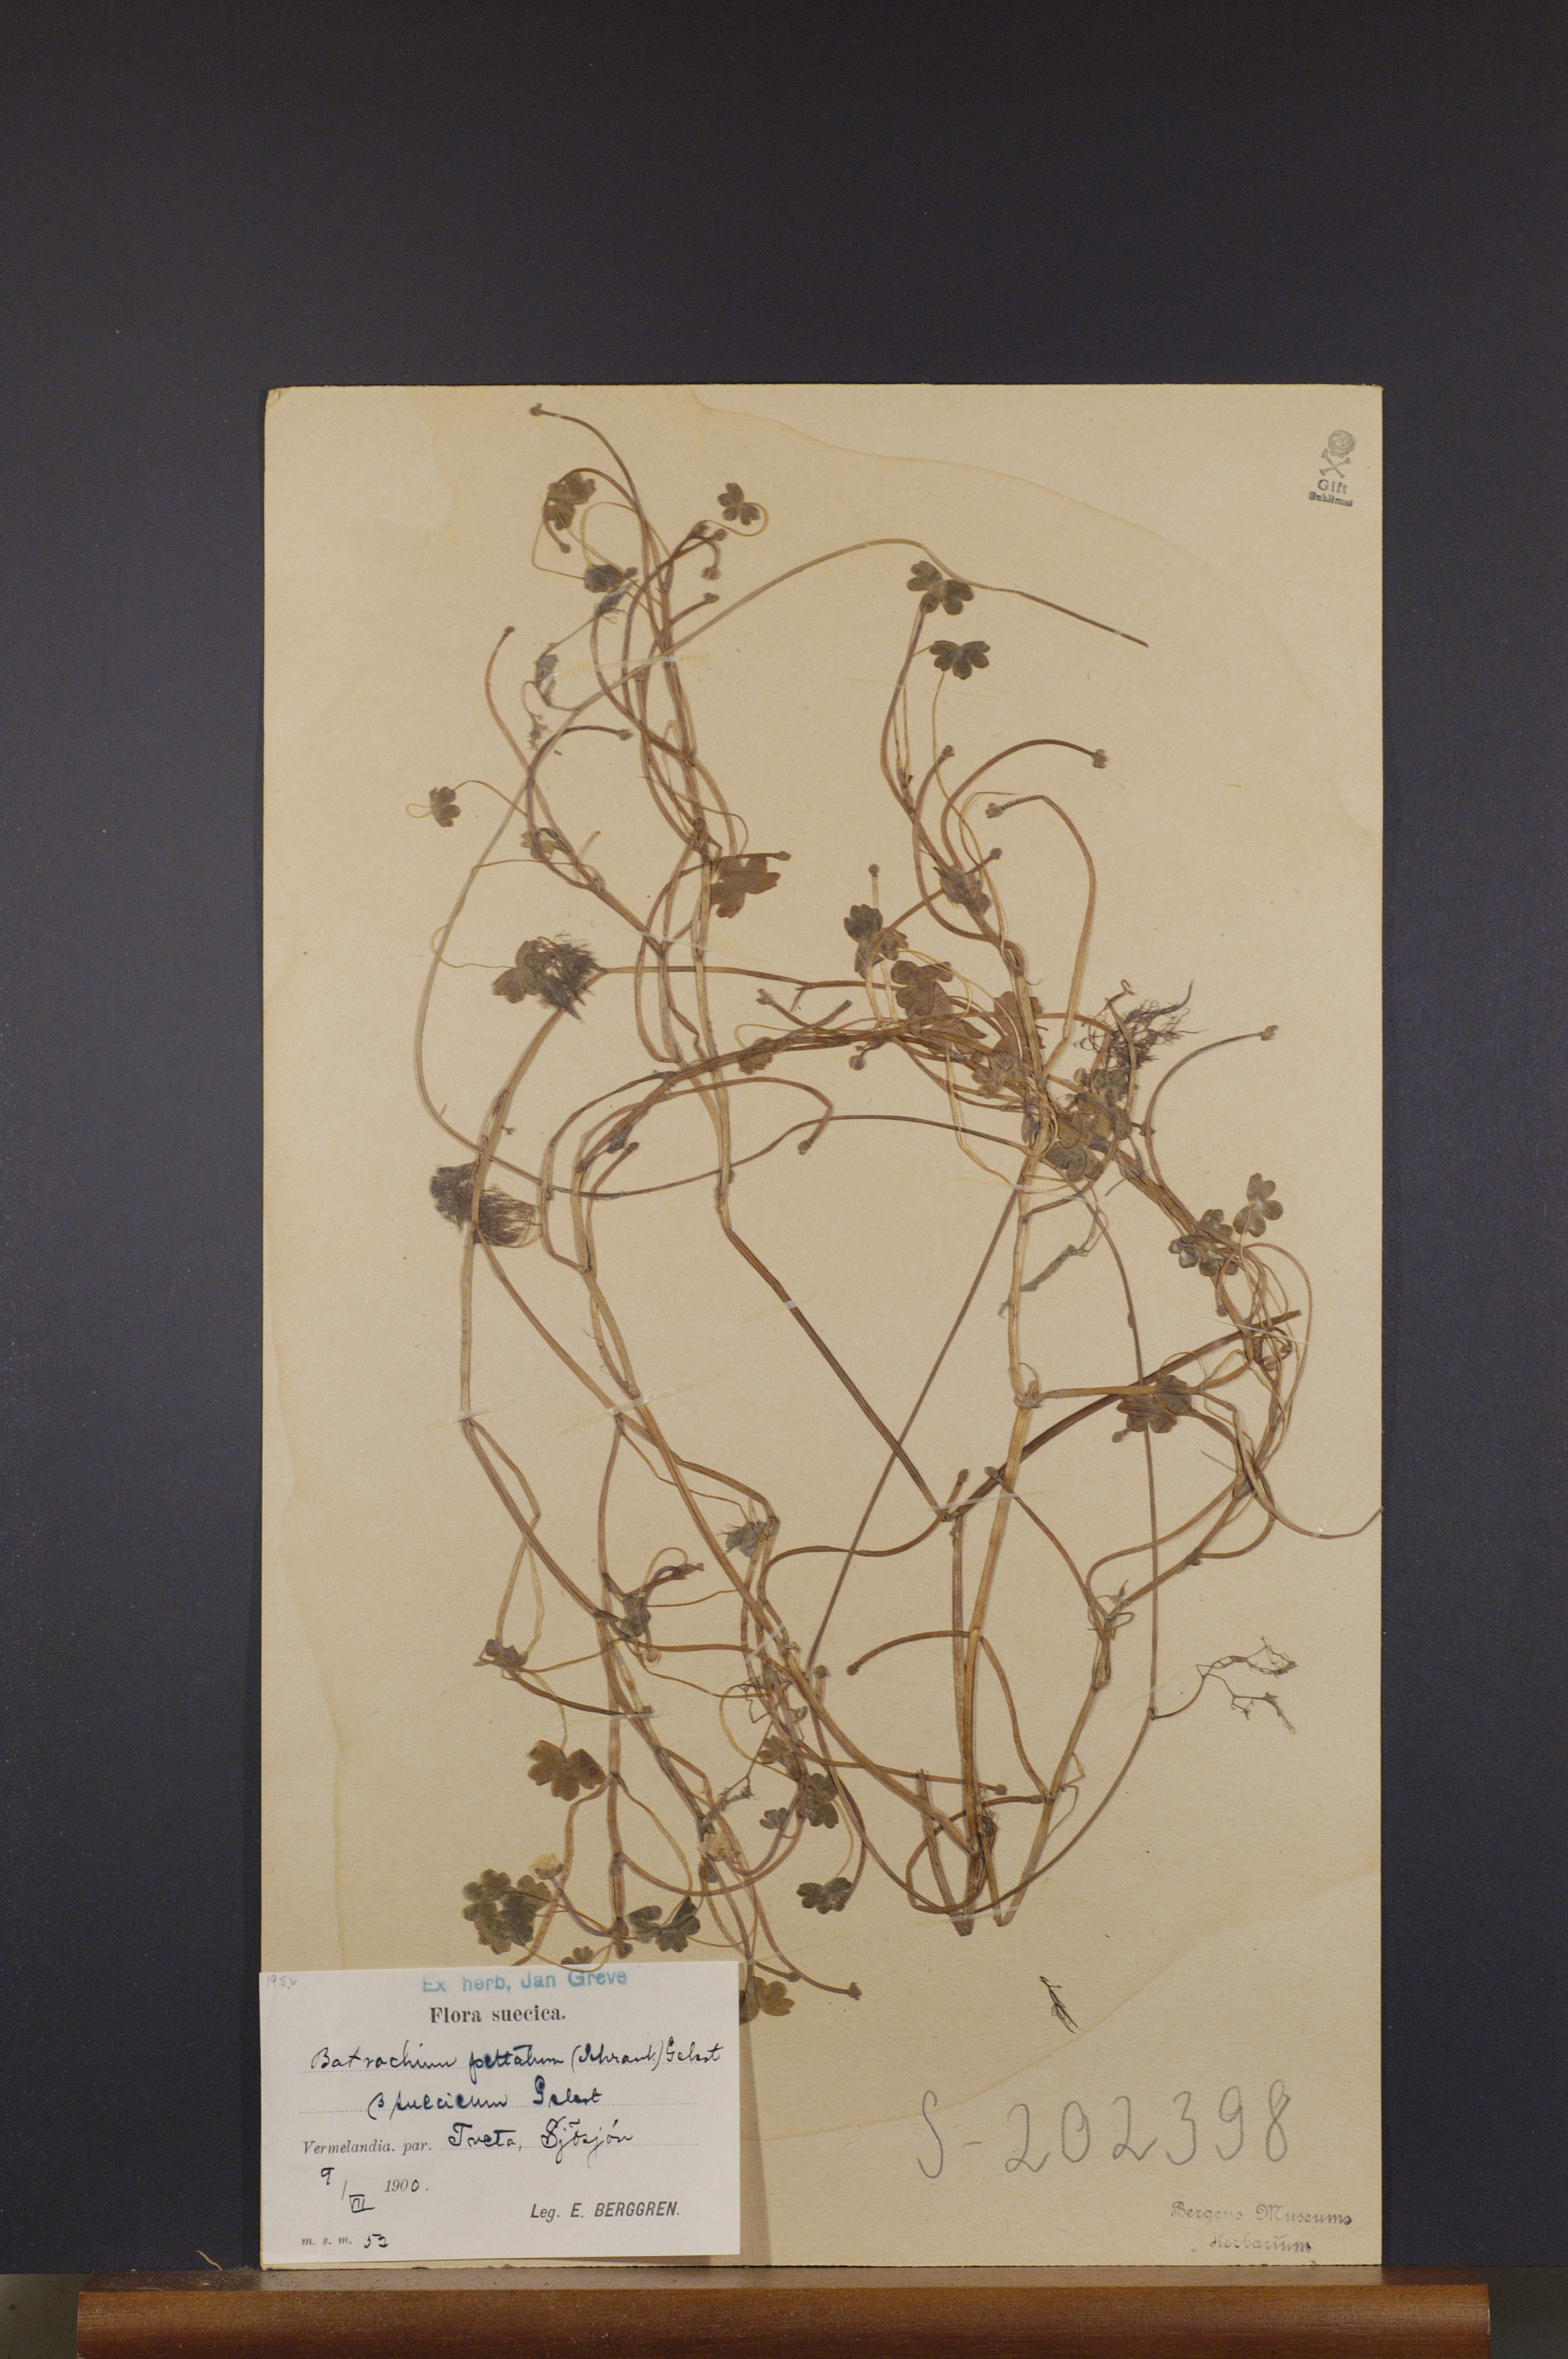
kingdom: Plantae
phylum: Tracheophyta
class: Magnoliopsida
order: Ranunculales
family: Ranunculaceae
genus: Ranunculus
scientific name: Ranunculus peltatus
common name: Pond water-crowfoot
